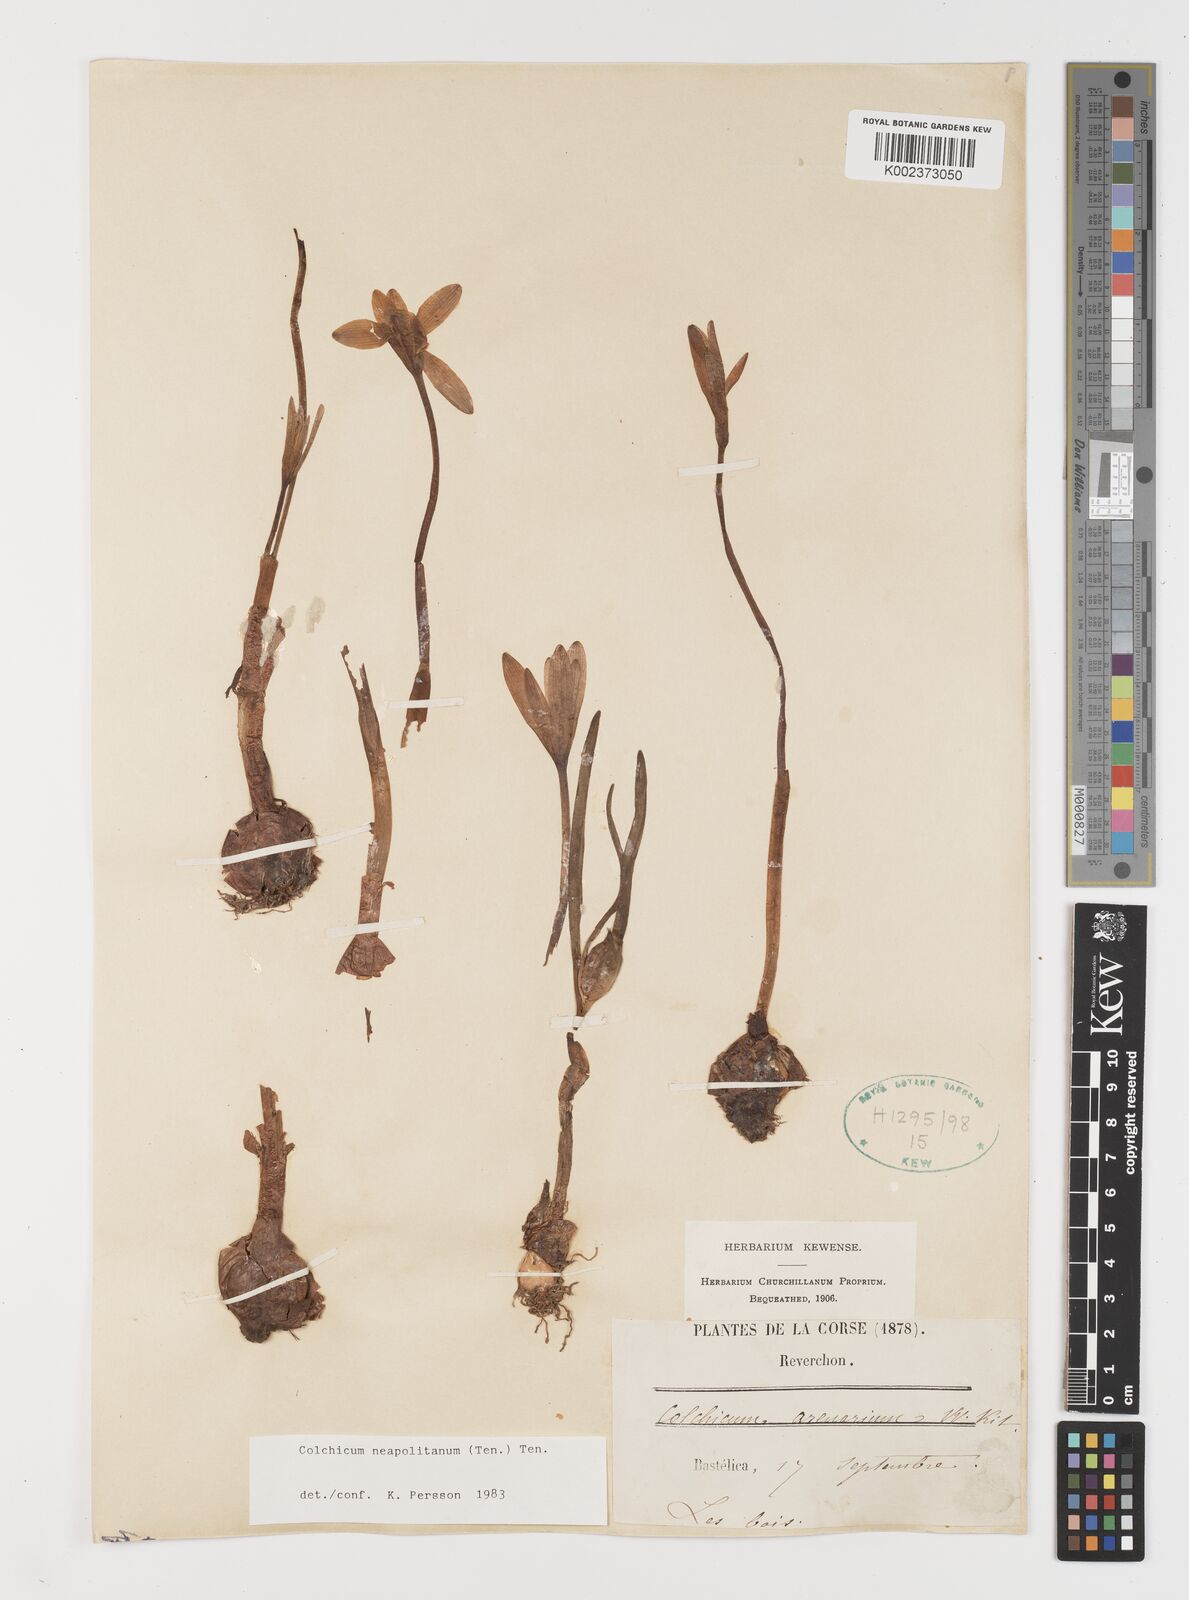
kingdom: Plantae
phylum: Tracheophyta
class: Liliopsida
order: Liliales
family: Colchicaceae
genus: Colchicum
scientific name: Colchicum neapolitanum
